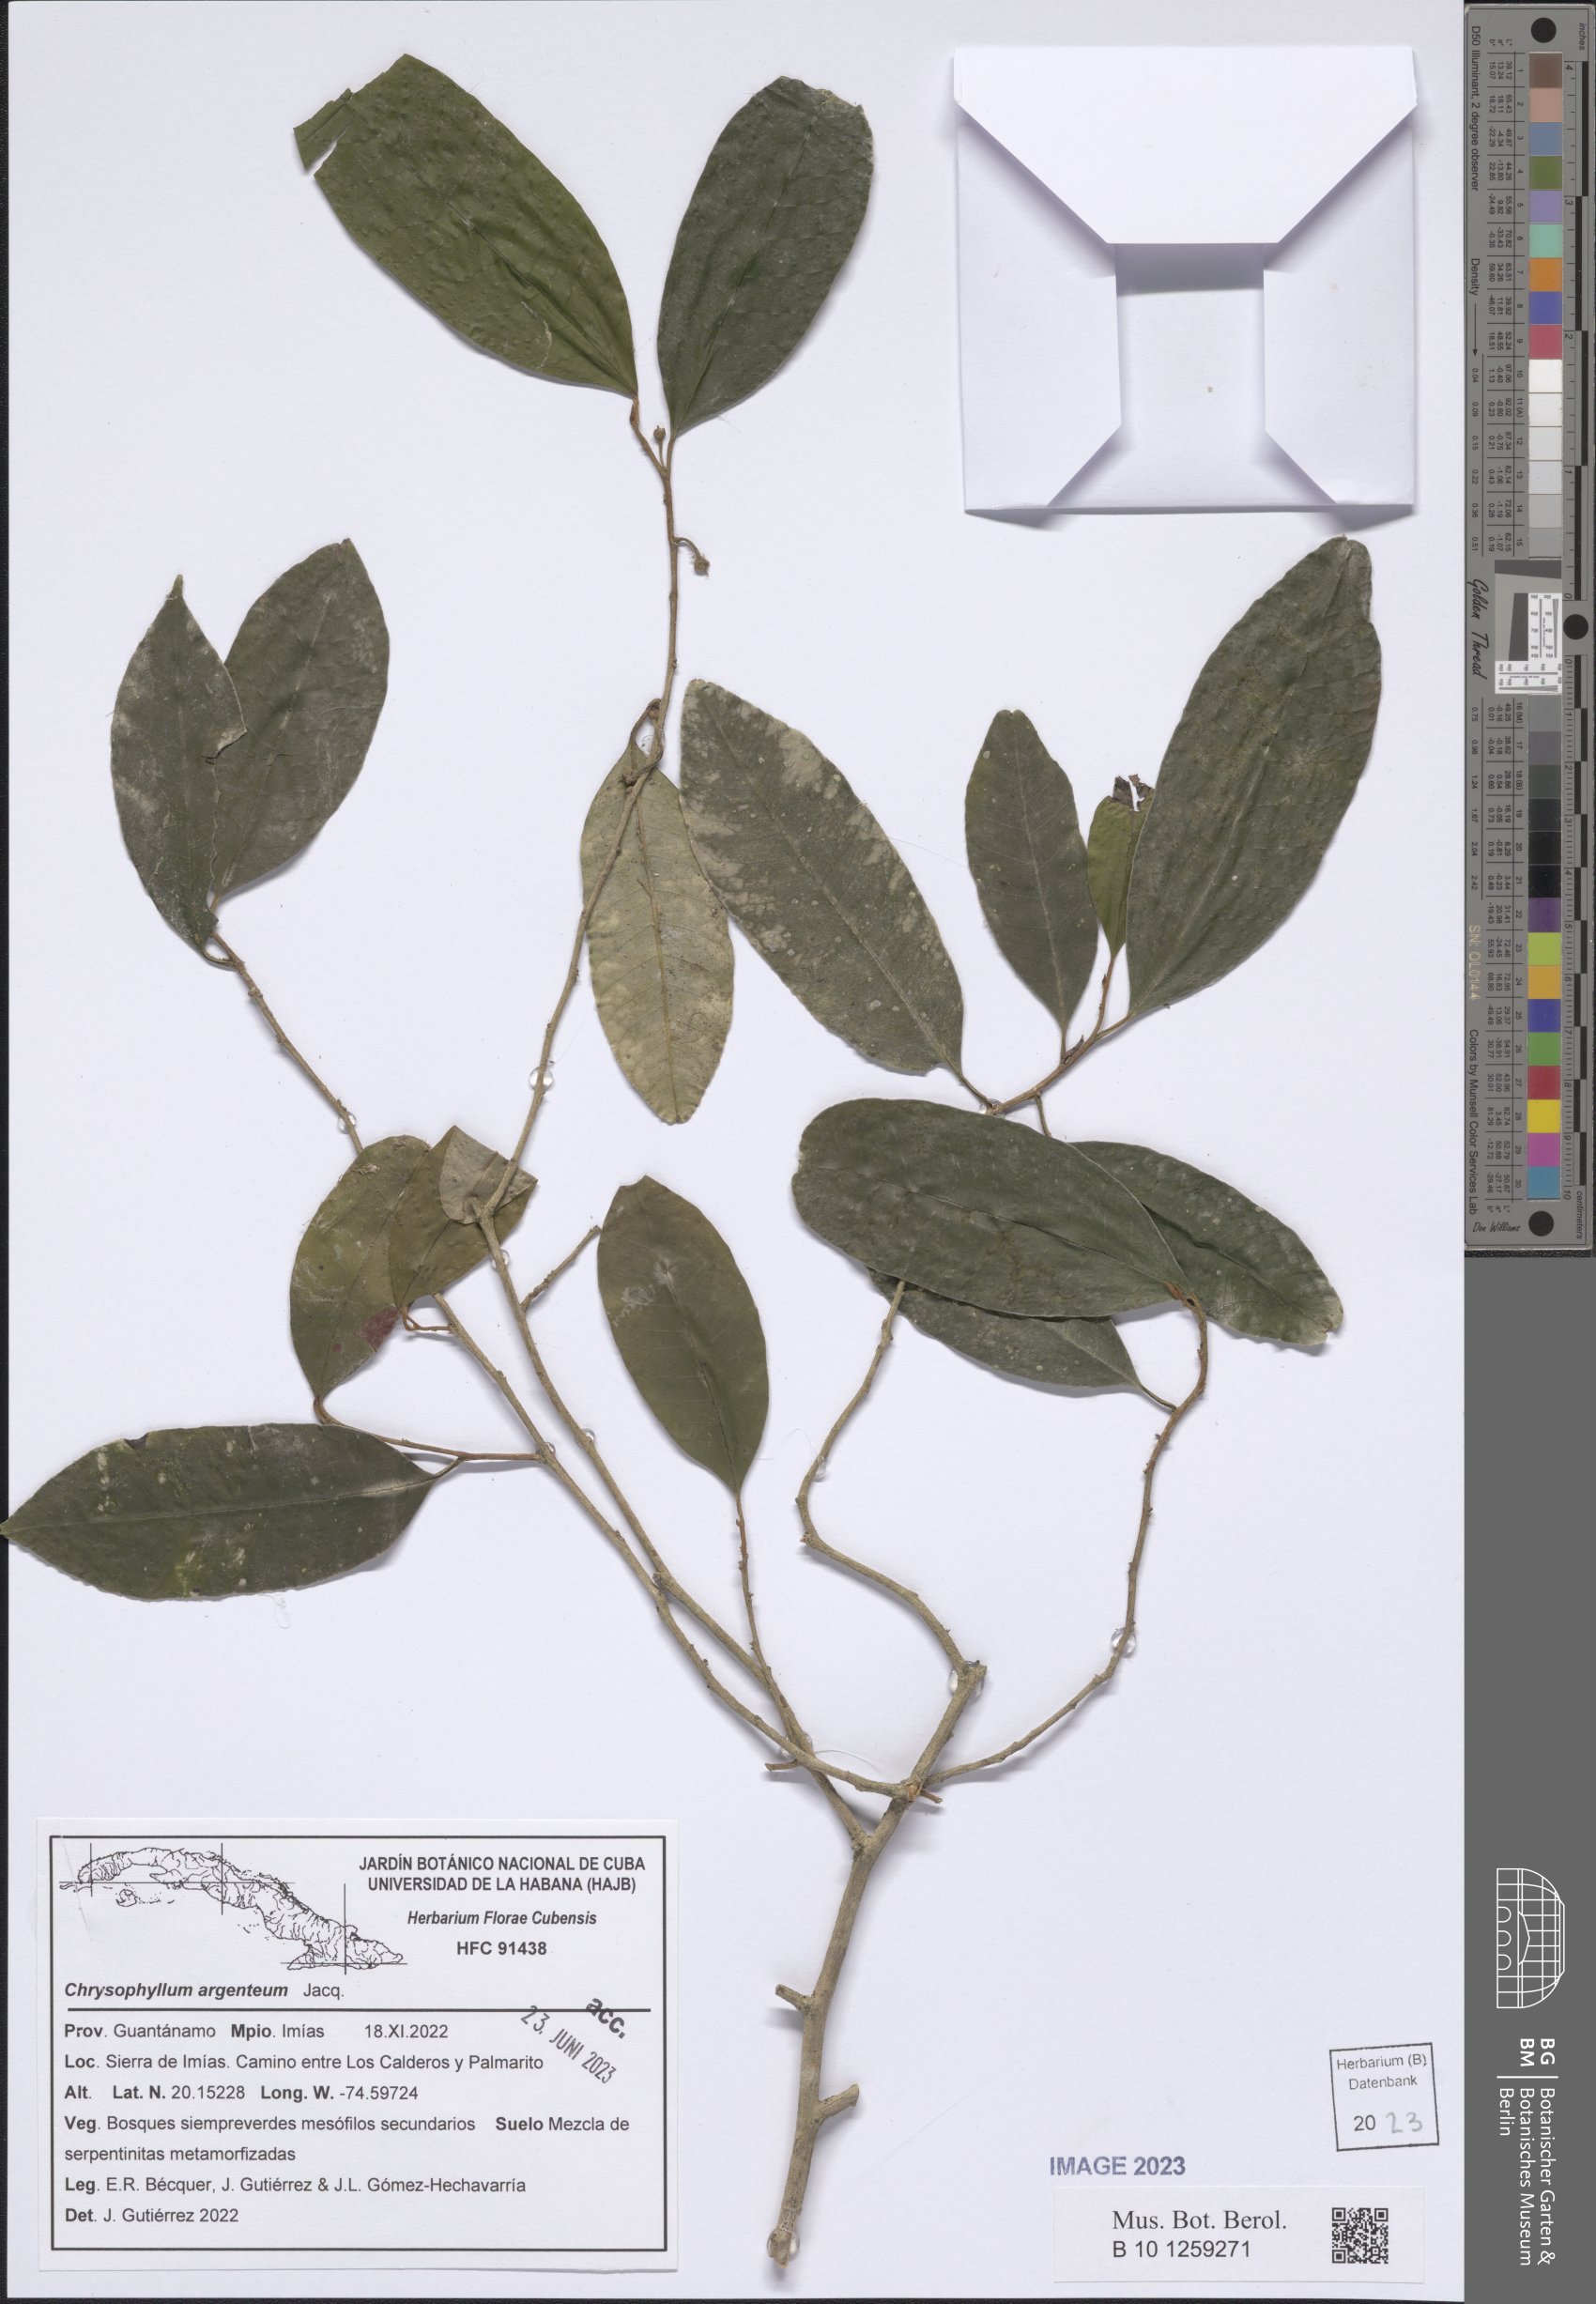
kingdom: Plantae
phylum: Tracheophyta
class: Magnoliopsida
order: Ericales
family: Sapotaceae
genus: Chrysophyllum
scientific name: Chrysophyllum argenteum
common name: Smooth star apple
